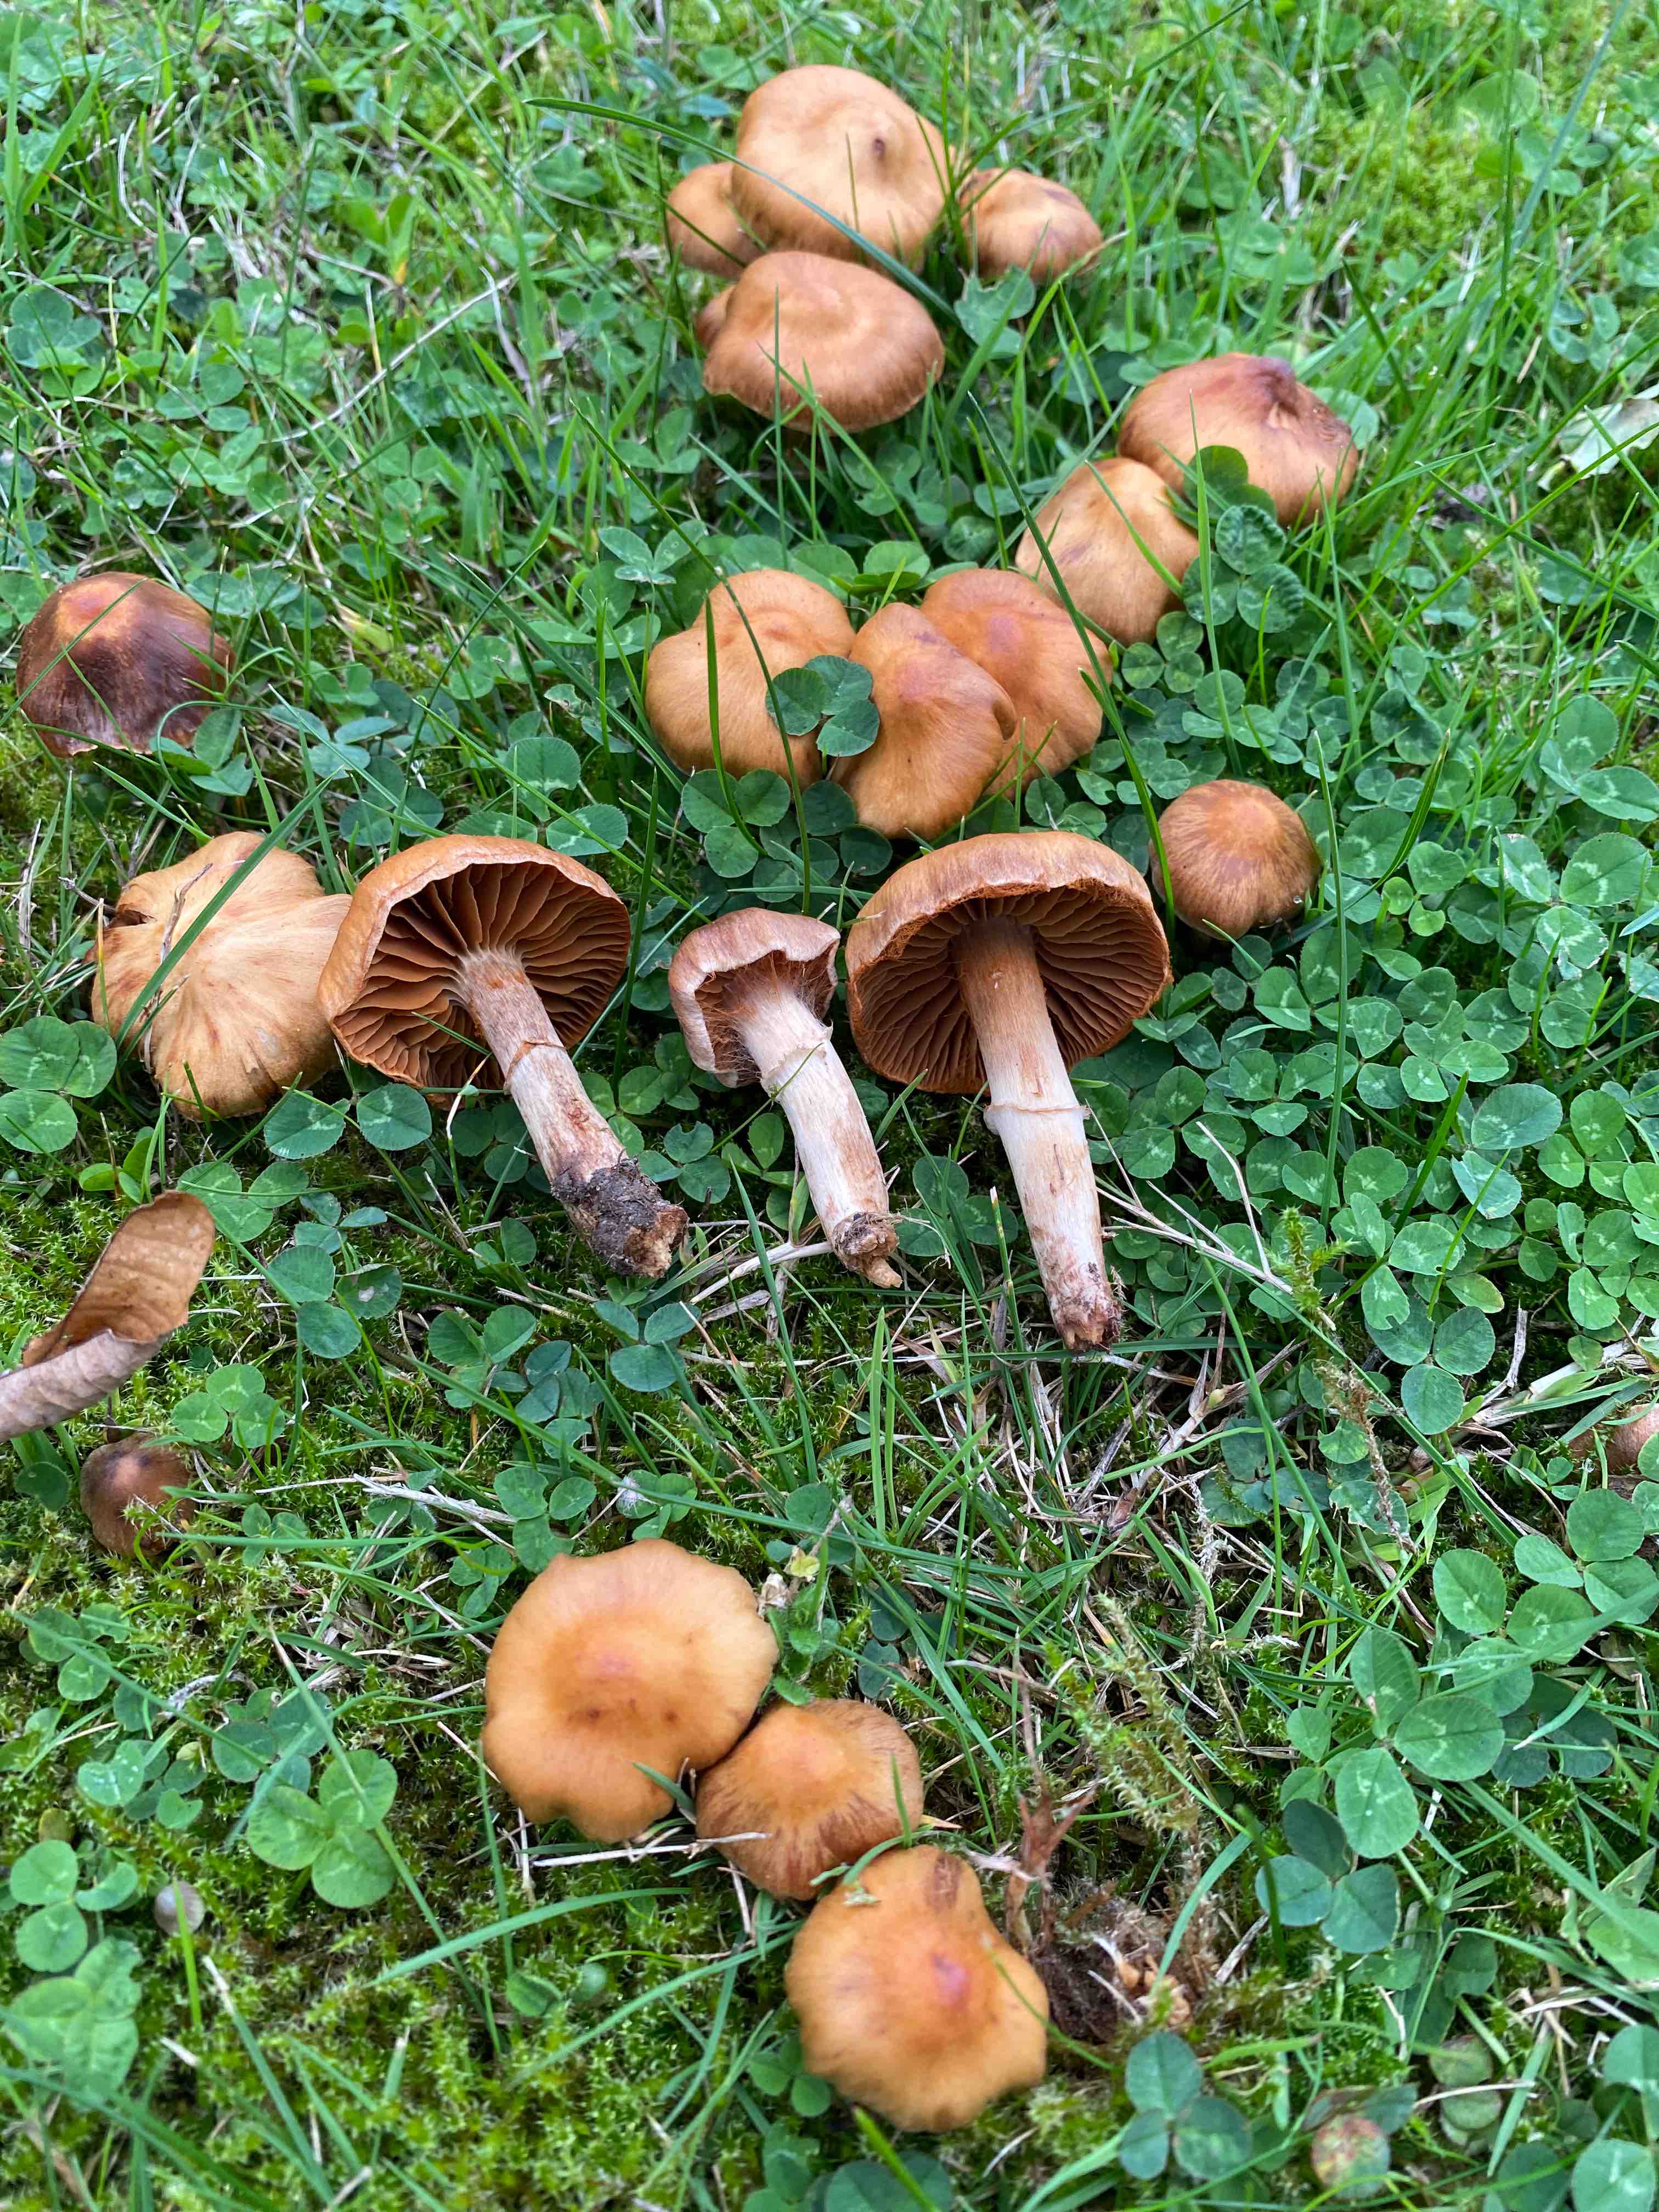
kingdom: Fungi
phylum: Basidiomycota
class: Agaricomycetes
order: Agaricales
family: Cortinariaceae
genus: Cortinarius
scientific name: Cortinarius hinnuleus
